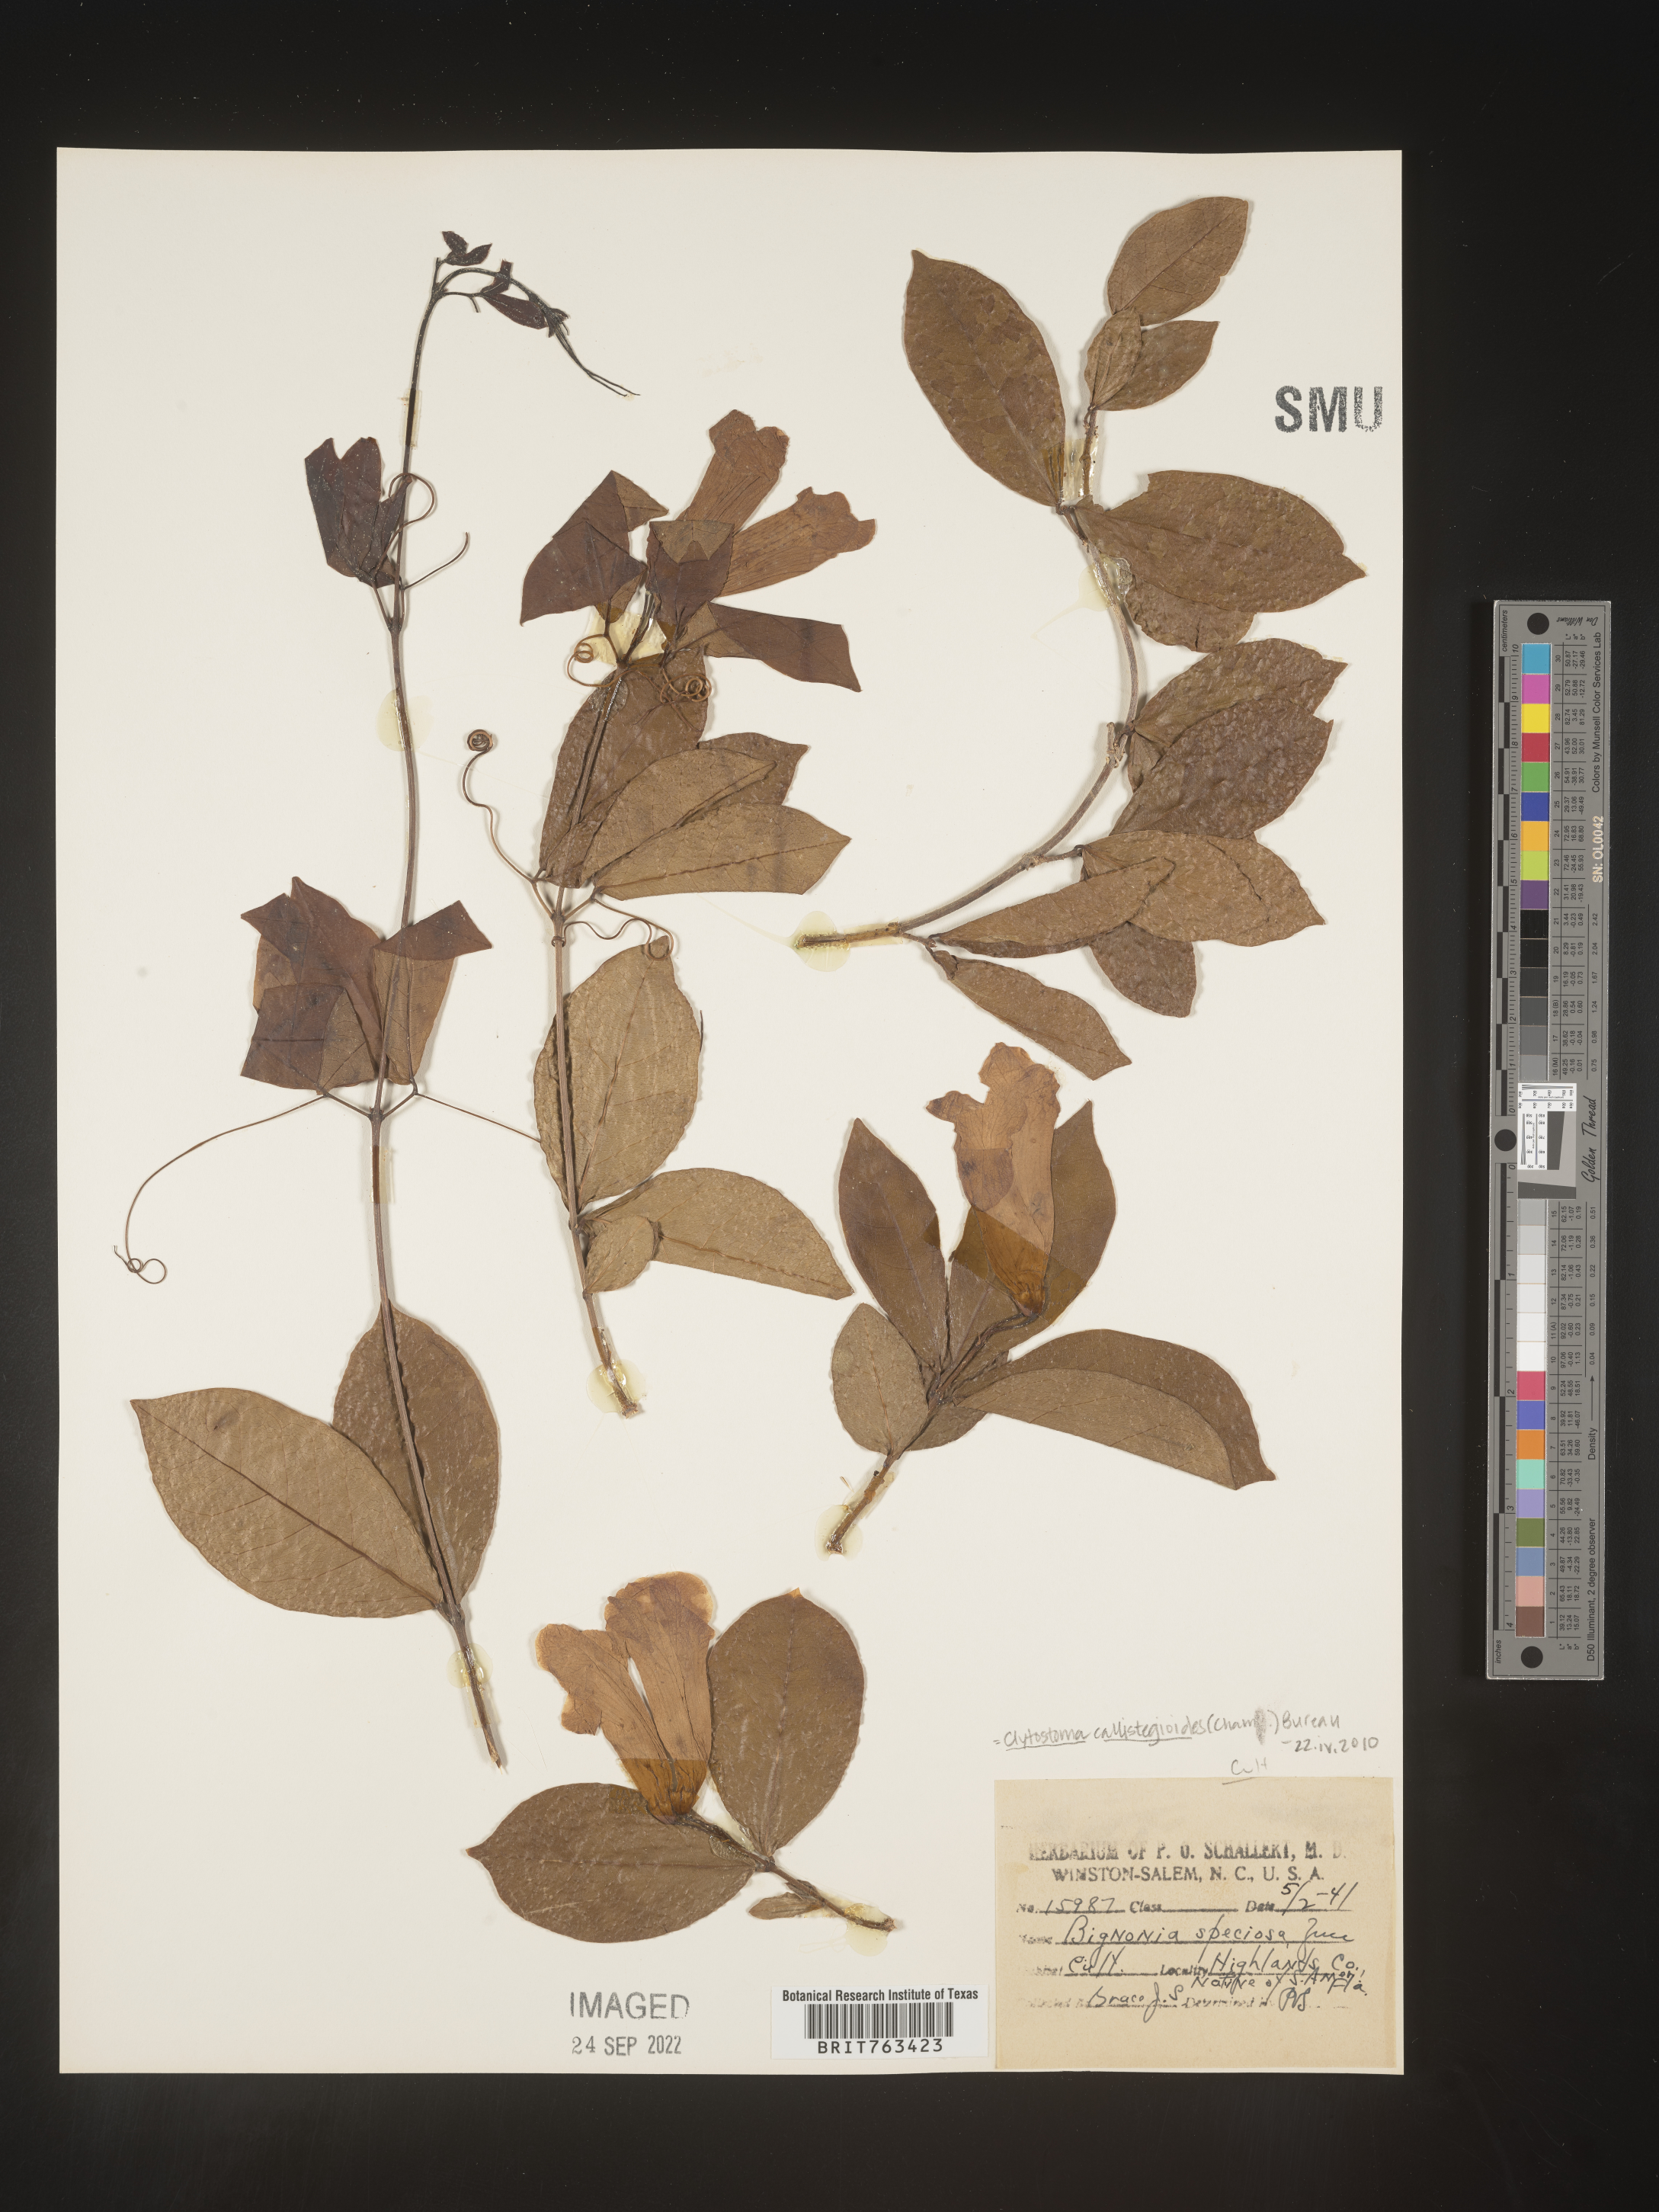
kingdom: Plantae
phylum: Tracheophyta
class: Magnoliopsida
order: Lamiales
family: Bignoniaceae
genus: Bignonia
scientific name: Bignonia
